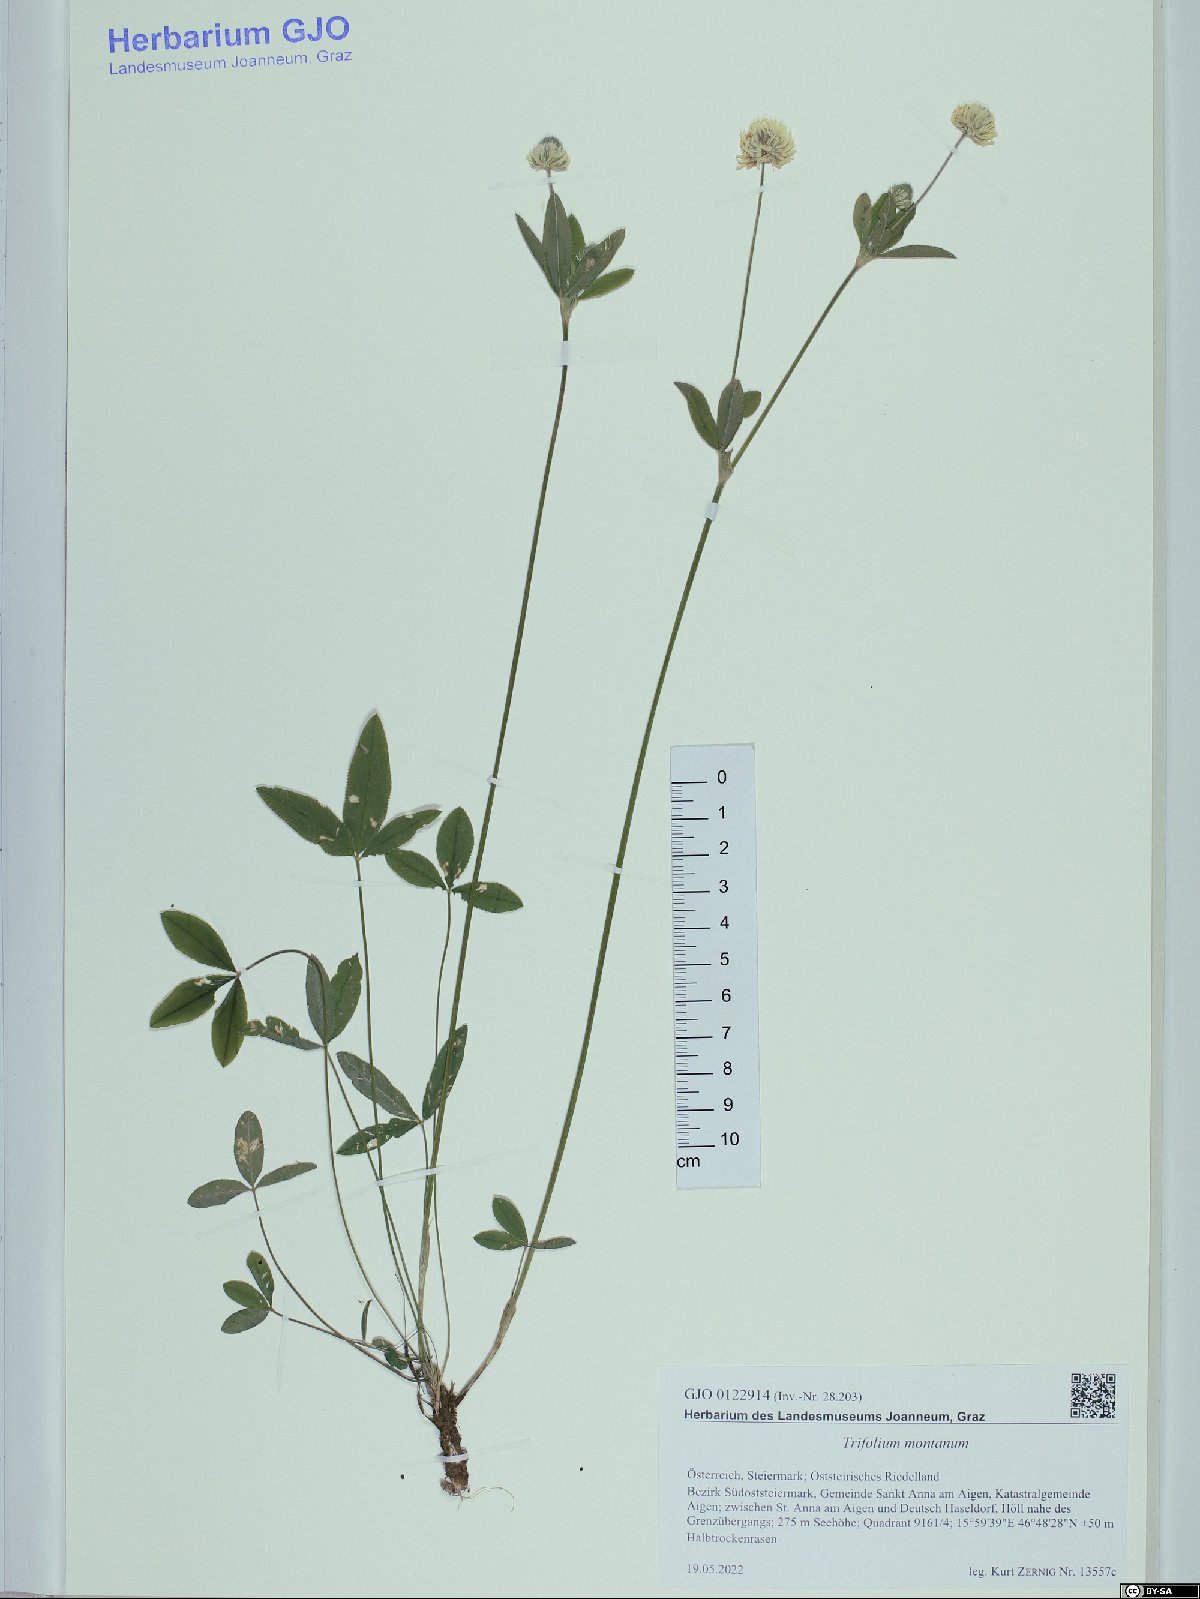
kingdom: Plantae
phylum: Tracheophyta
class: Magnoliopsida
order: Fabales
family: Fabaceae
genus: Trifolium
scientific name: Trifolium montanum
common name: Mountain clover
